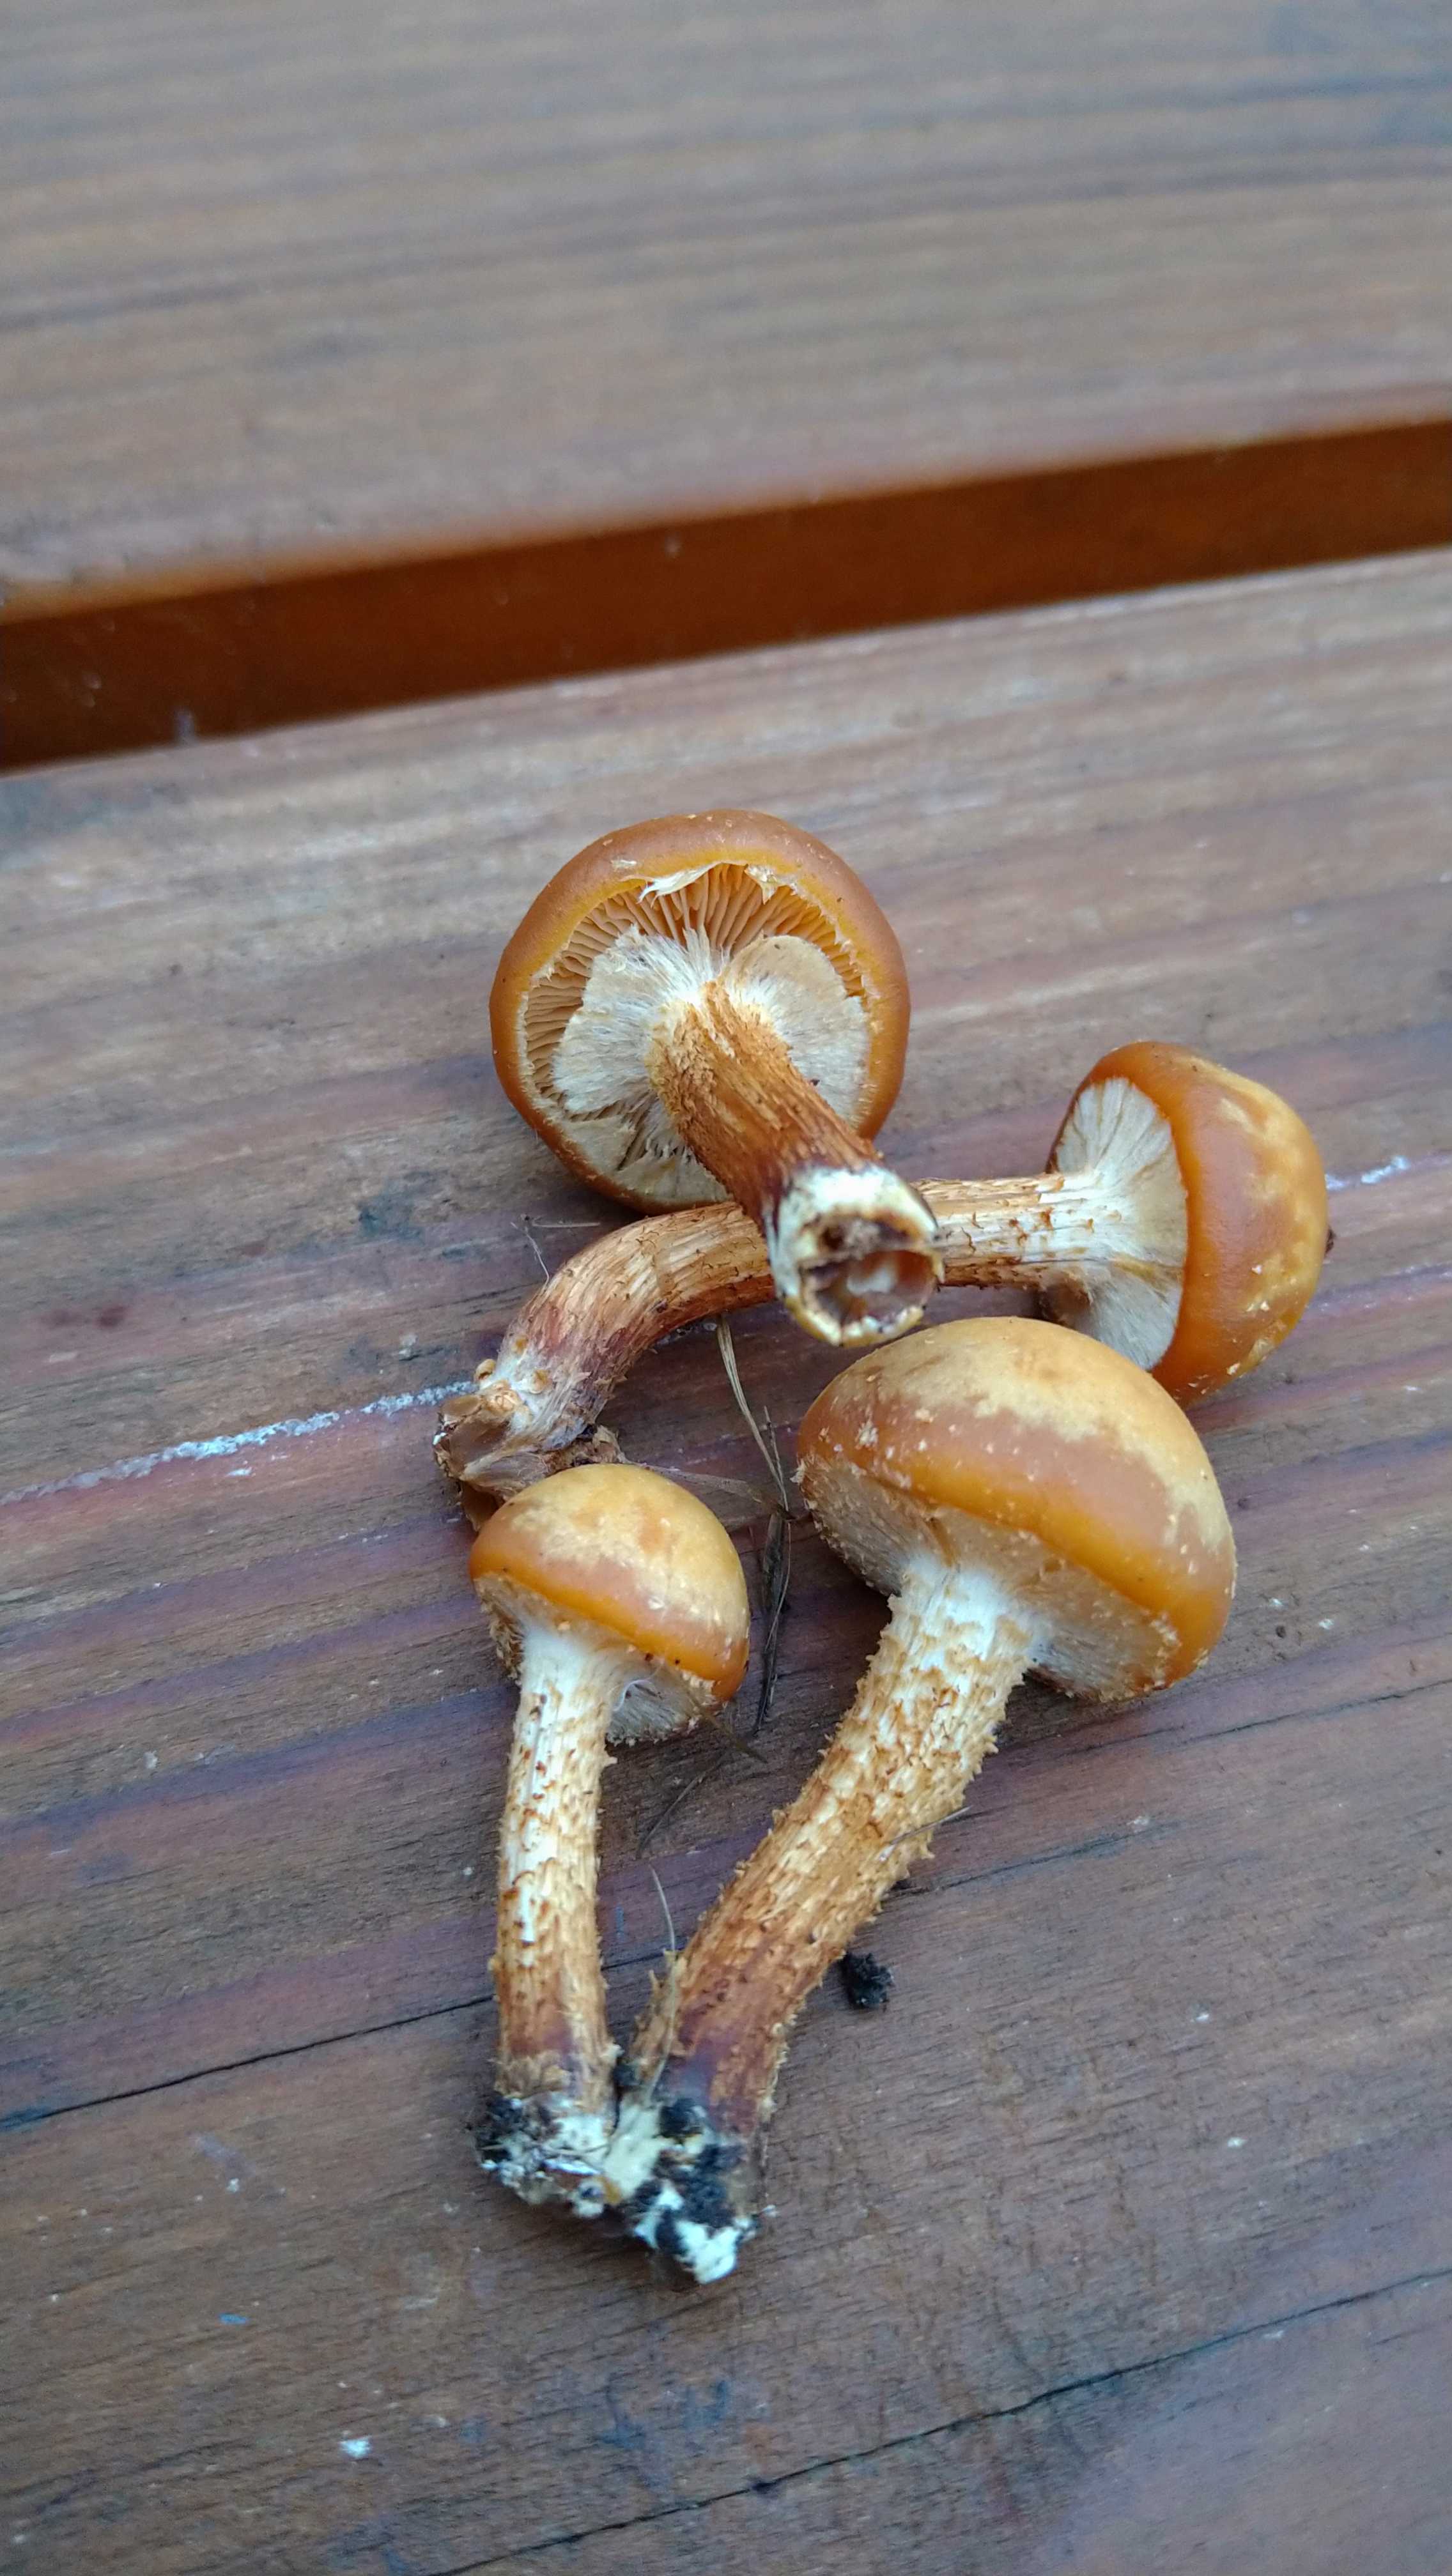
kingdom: Fungi
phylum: Basidiomycota
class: Agaricomycetes
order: Agaricales
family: Strophariaceae
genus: Kuehneromyces
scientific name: Kuehneromyces mutabilis
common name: foranderlig skælhat
